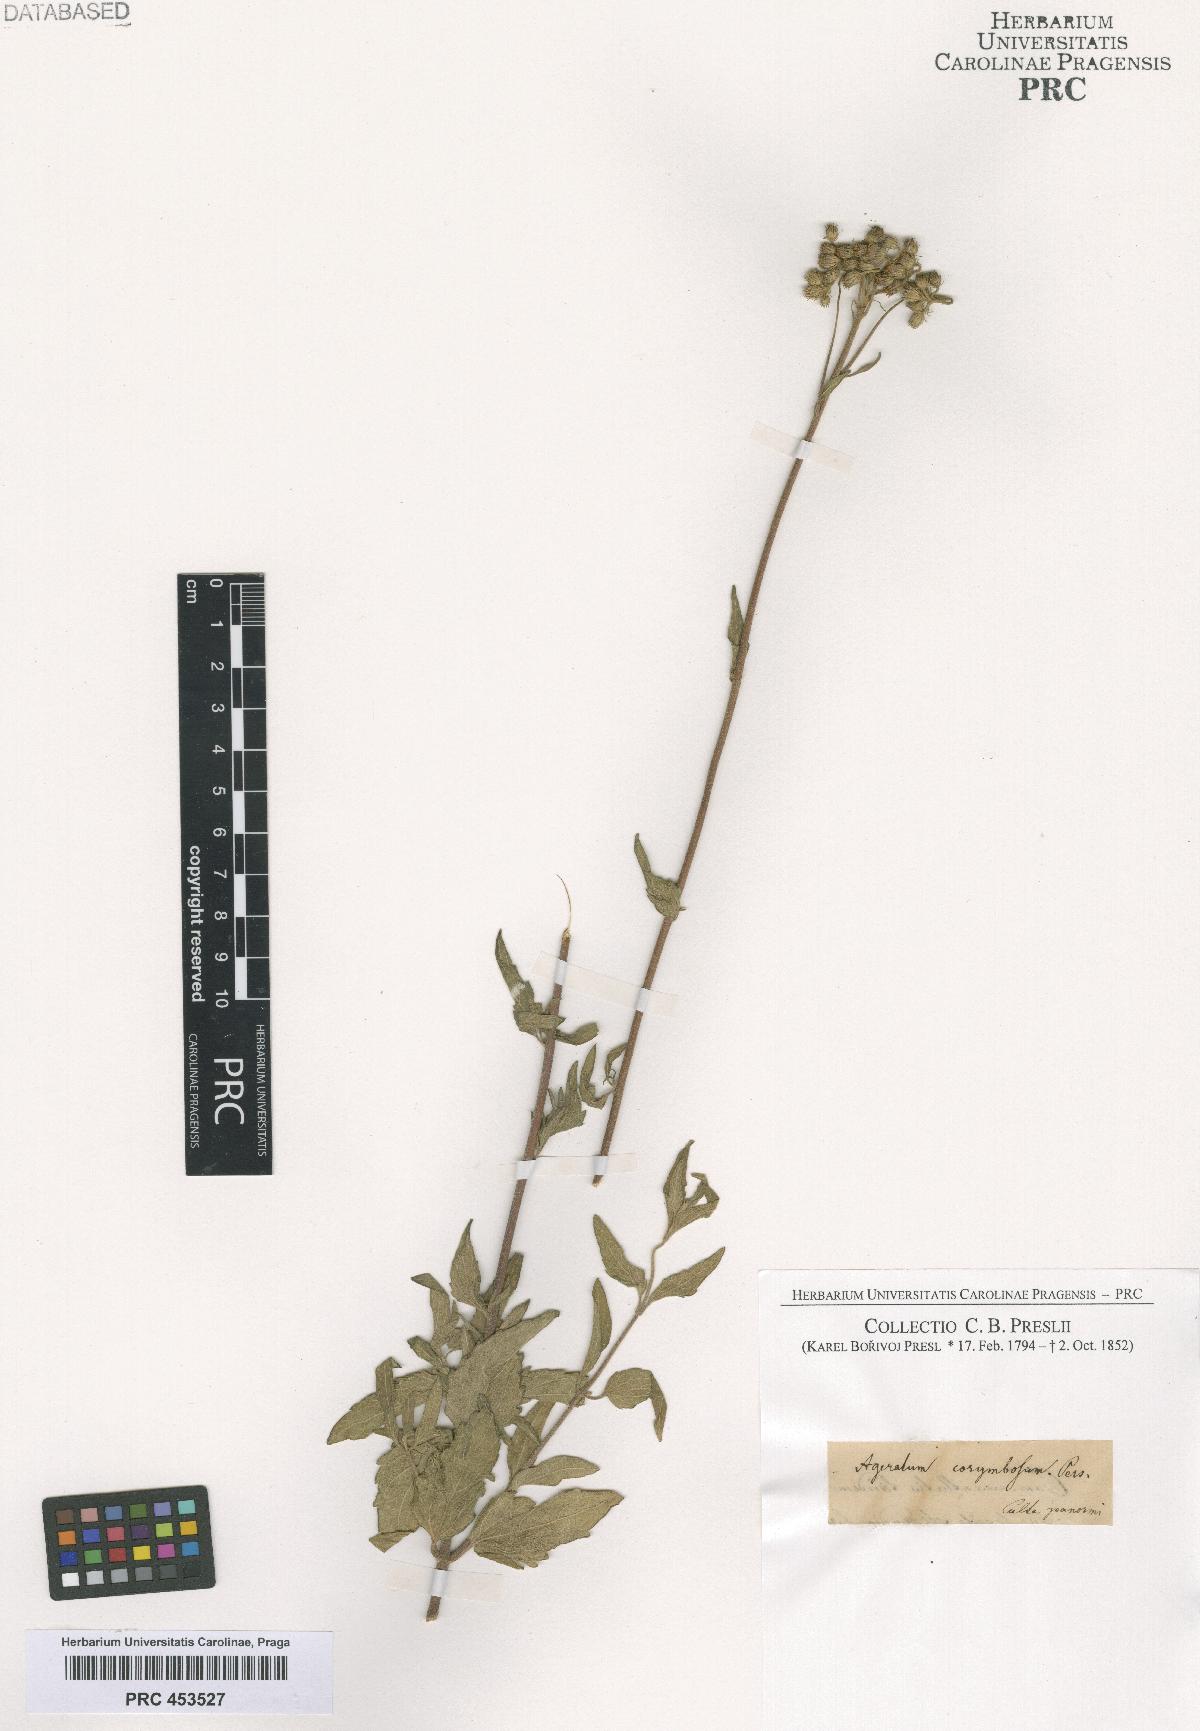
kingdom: Plantae
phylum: Tracheophyta
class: Magnoliopsida
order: Asterales
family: Asteraceae
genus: Ageratum
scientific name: Ageratum corymbosum
